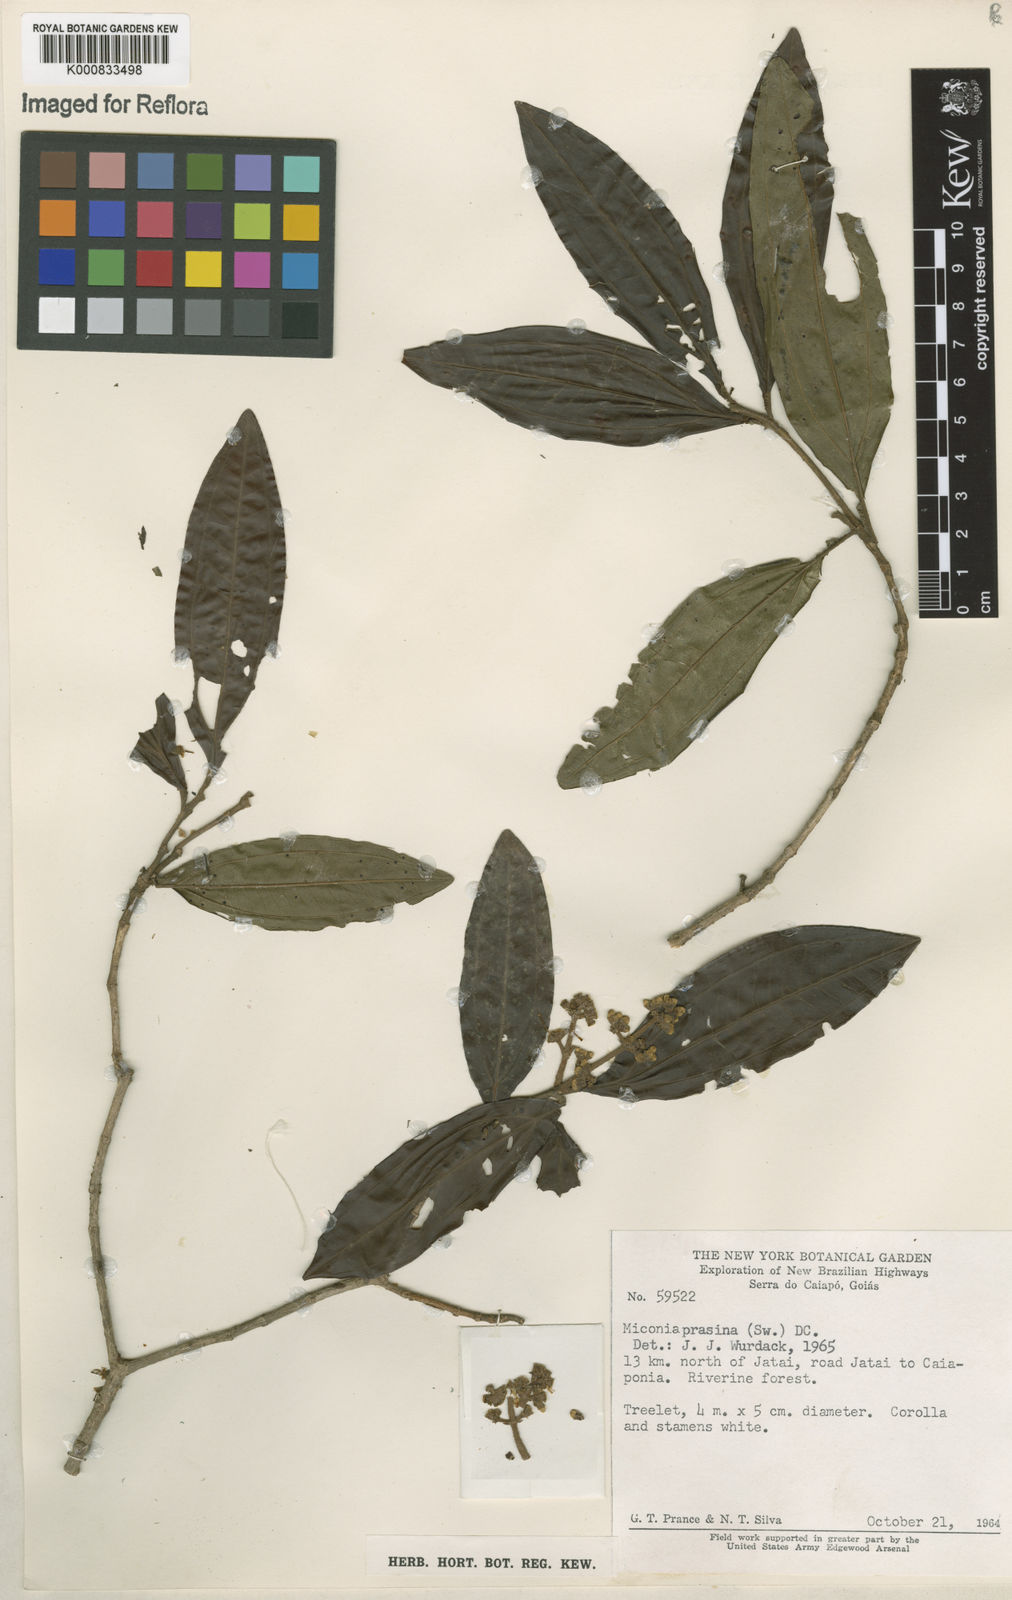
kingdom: Plantae
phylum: Tracheophyta
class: Magnoliopsida
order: Myrtales
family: Melastomataceae
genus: Miconia
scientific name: Miconia prasina
